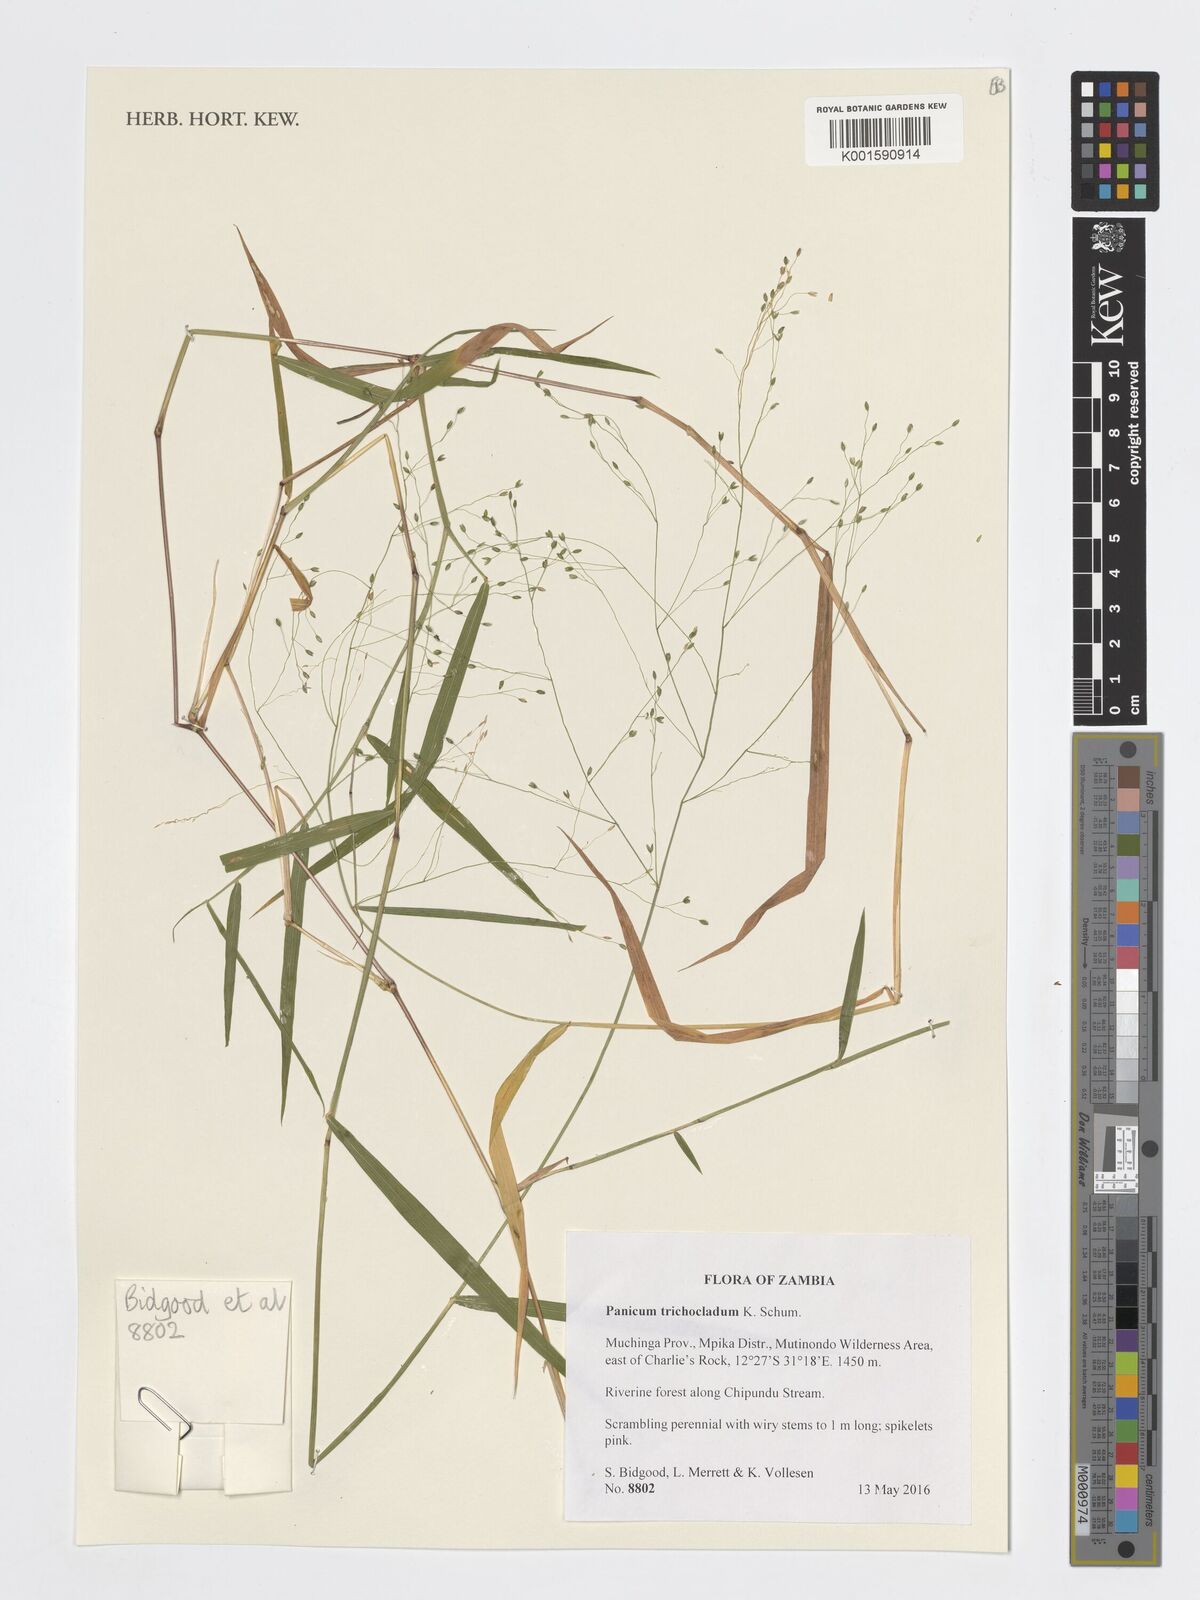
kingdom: Plantae
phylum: Tracheophyta
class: Liliopsida
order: Poales
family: Poaceae
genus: Panicum
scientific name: Panicum trichocladum
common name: Donkey grass
